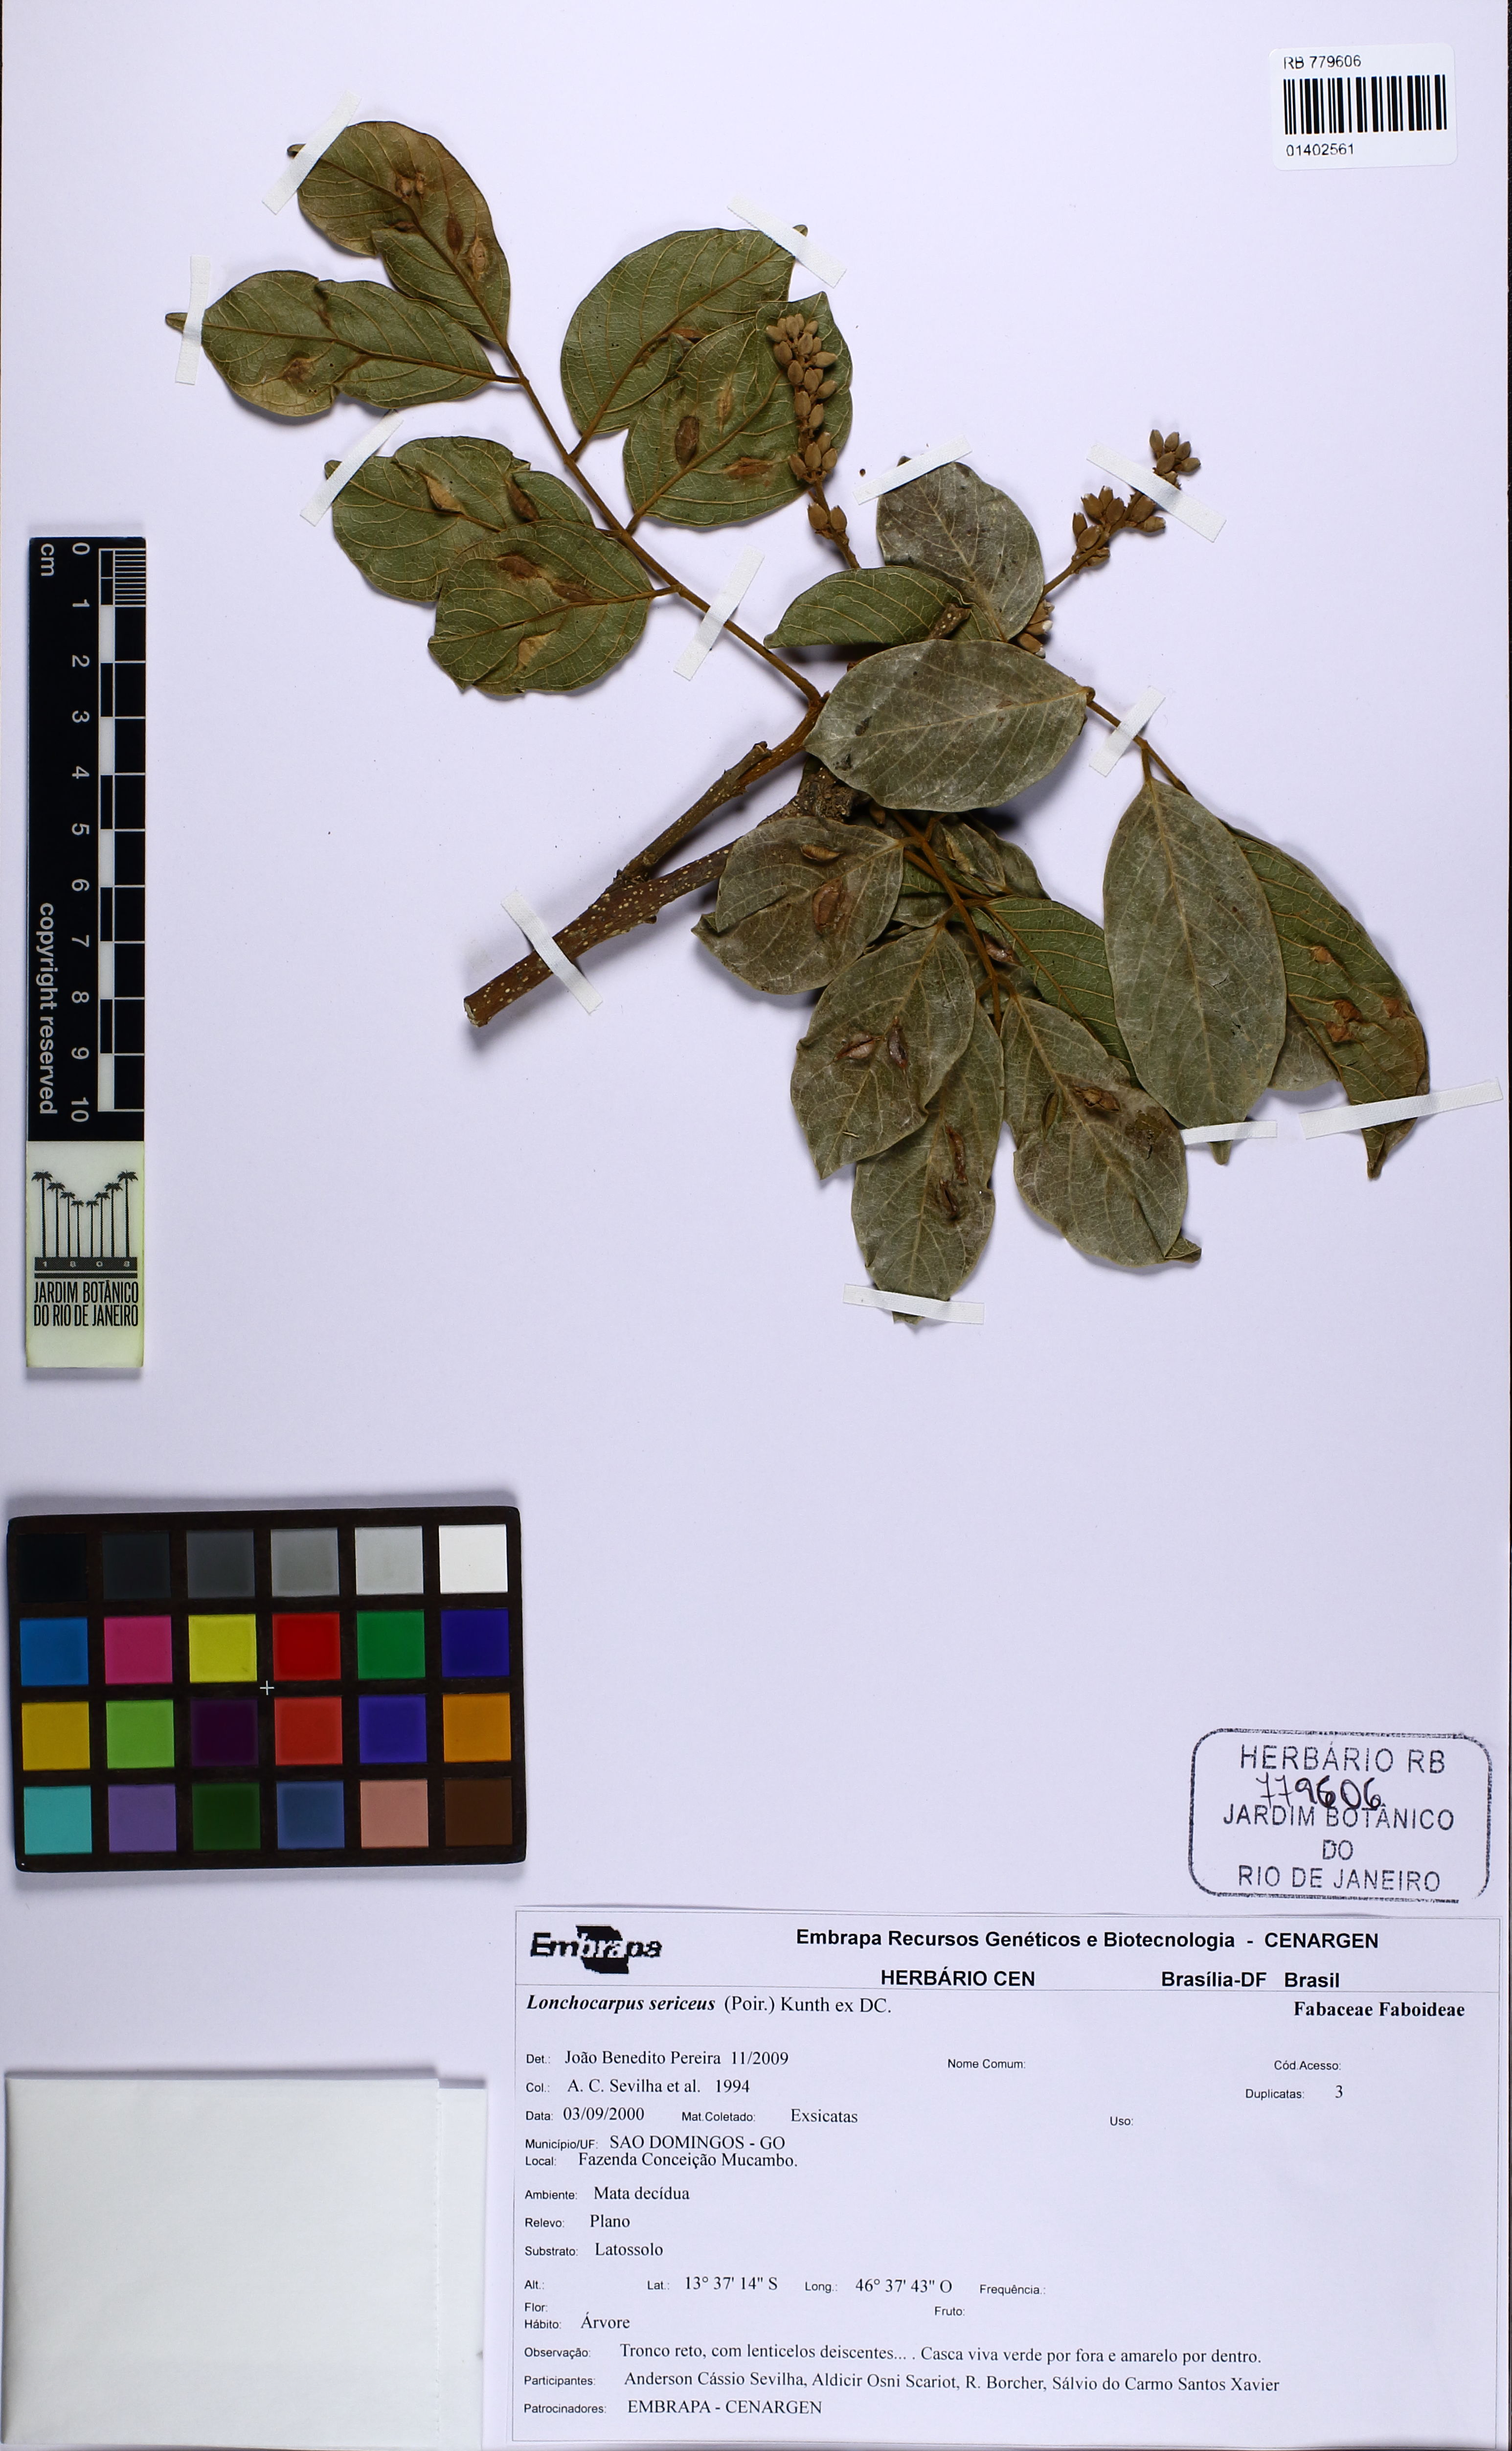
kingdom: Plantae
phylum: Tracheophyta
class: Magnoliopsida
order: Fabales
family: Fabaceae
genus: Lonchocarpus
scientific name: Lonchocarpus sericeus
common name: Savonette
